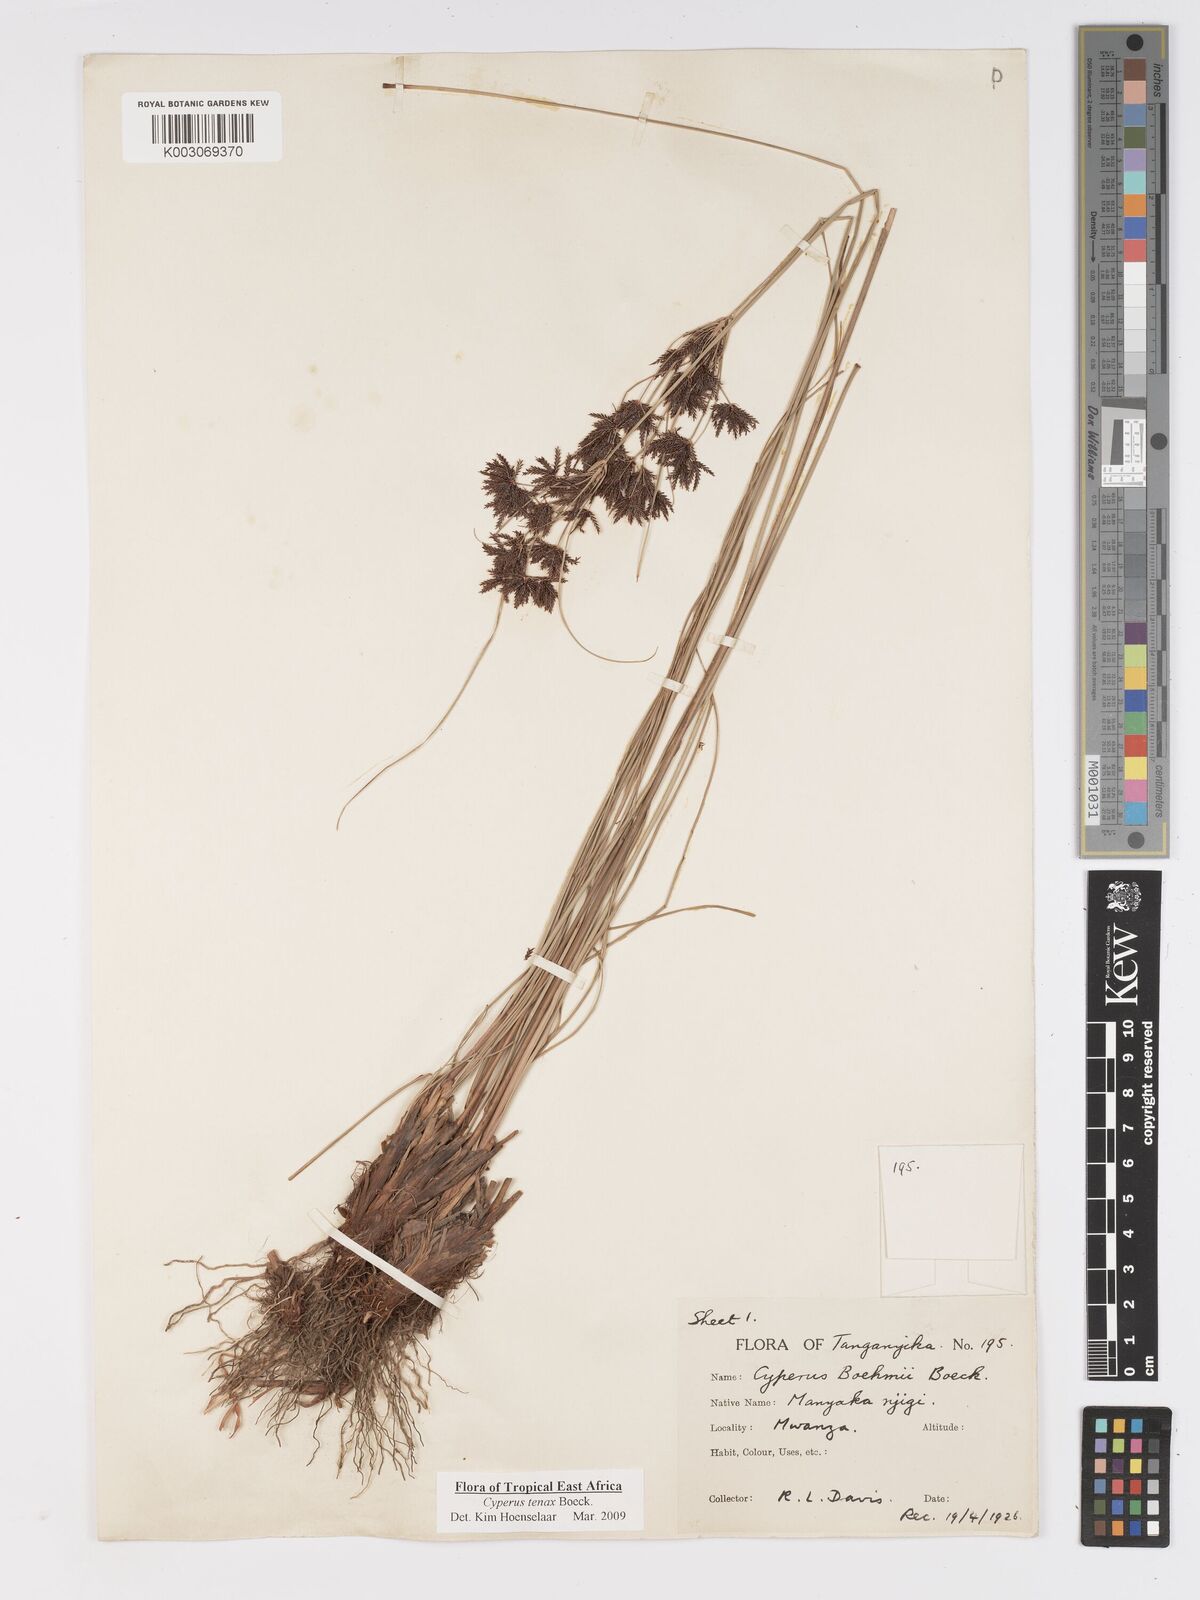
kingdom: Plantae
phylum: Tracheophyta
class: Liliopsida
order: Poales
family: Cyperaceae
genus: Cyperus
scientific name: Cyperus tenax
